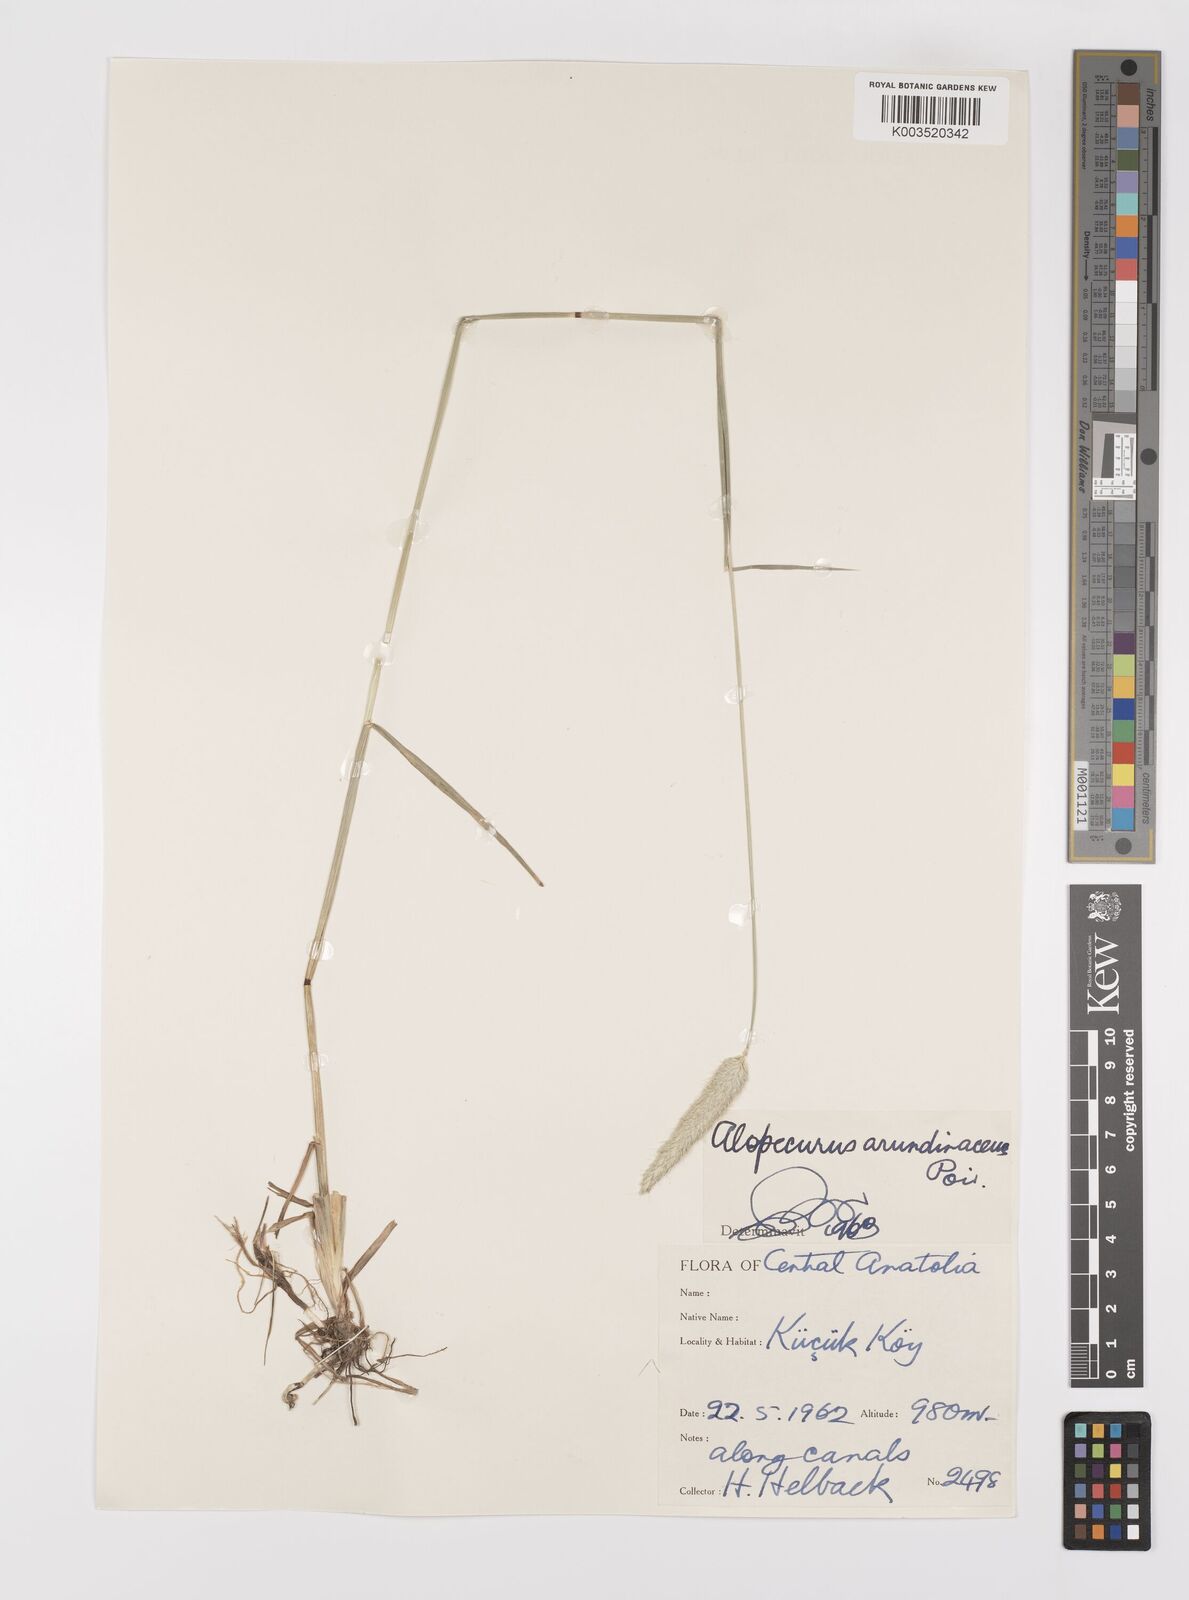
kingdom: Plantae
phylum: Tracheophyta
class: Liliopsida
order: Poales
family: Poaceae
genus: Alopecurus
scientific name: Alopecurus arundinaceus
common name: Creeping meadow foxtail
